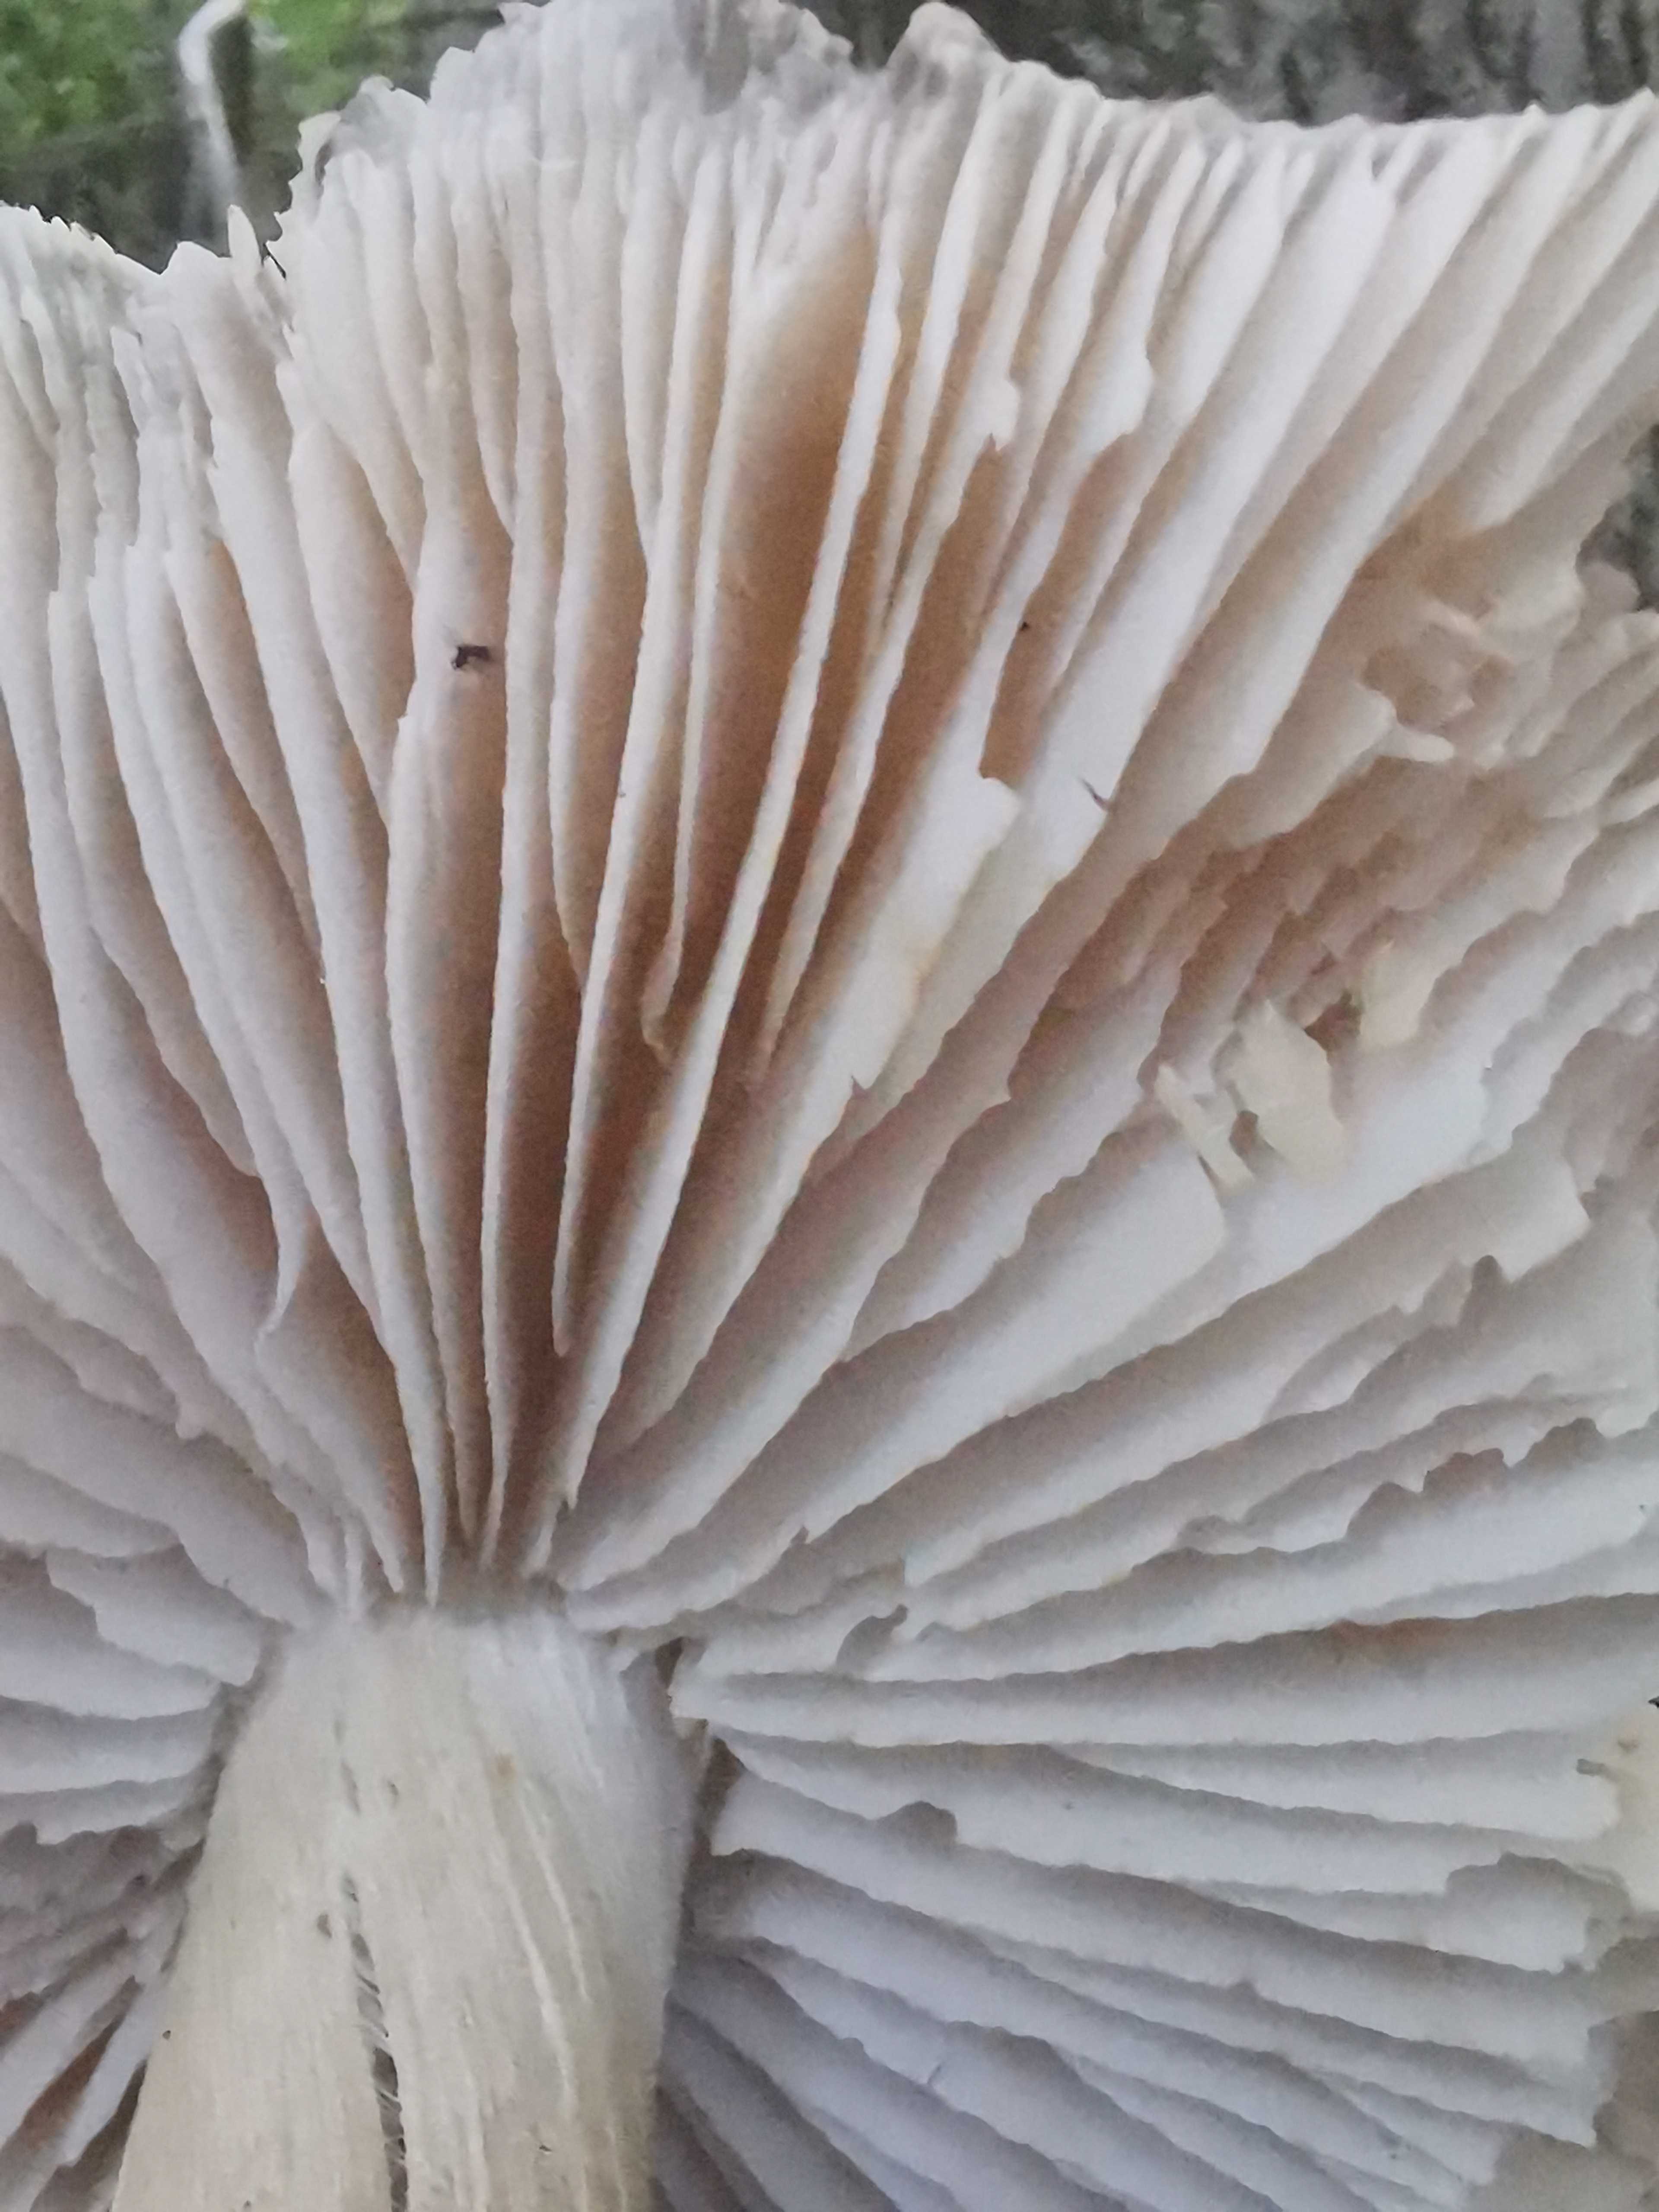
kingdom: Fungi
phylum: Basidiomycota
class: Agaricomycetes
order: Agaricales
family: Tricholomataceae
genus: Megacollybia
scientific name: Megacollybia platyphylla
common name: bredbladet væbnerhat
